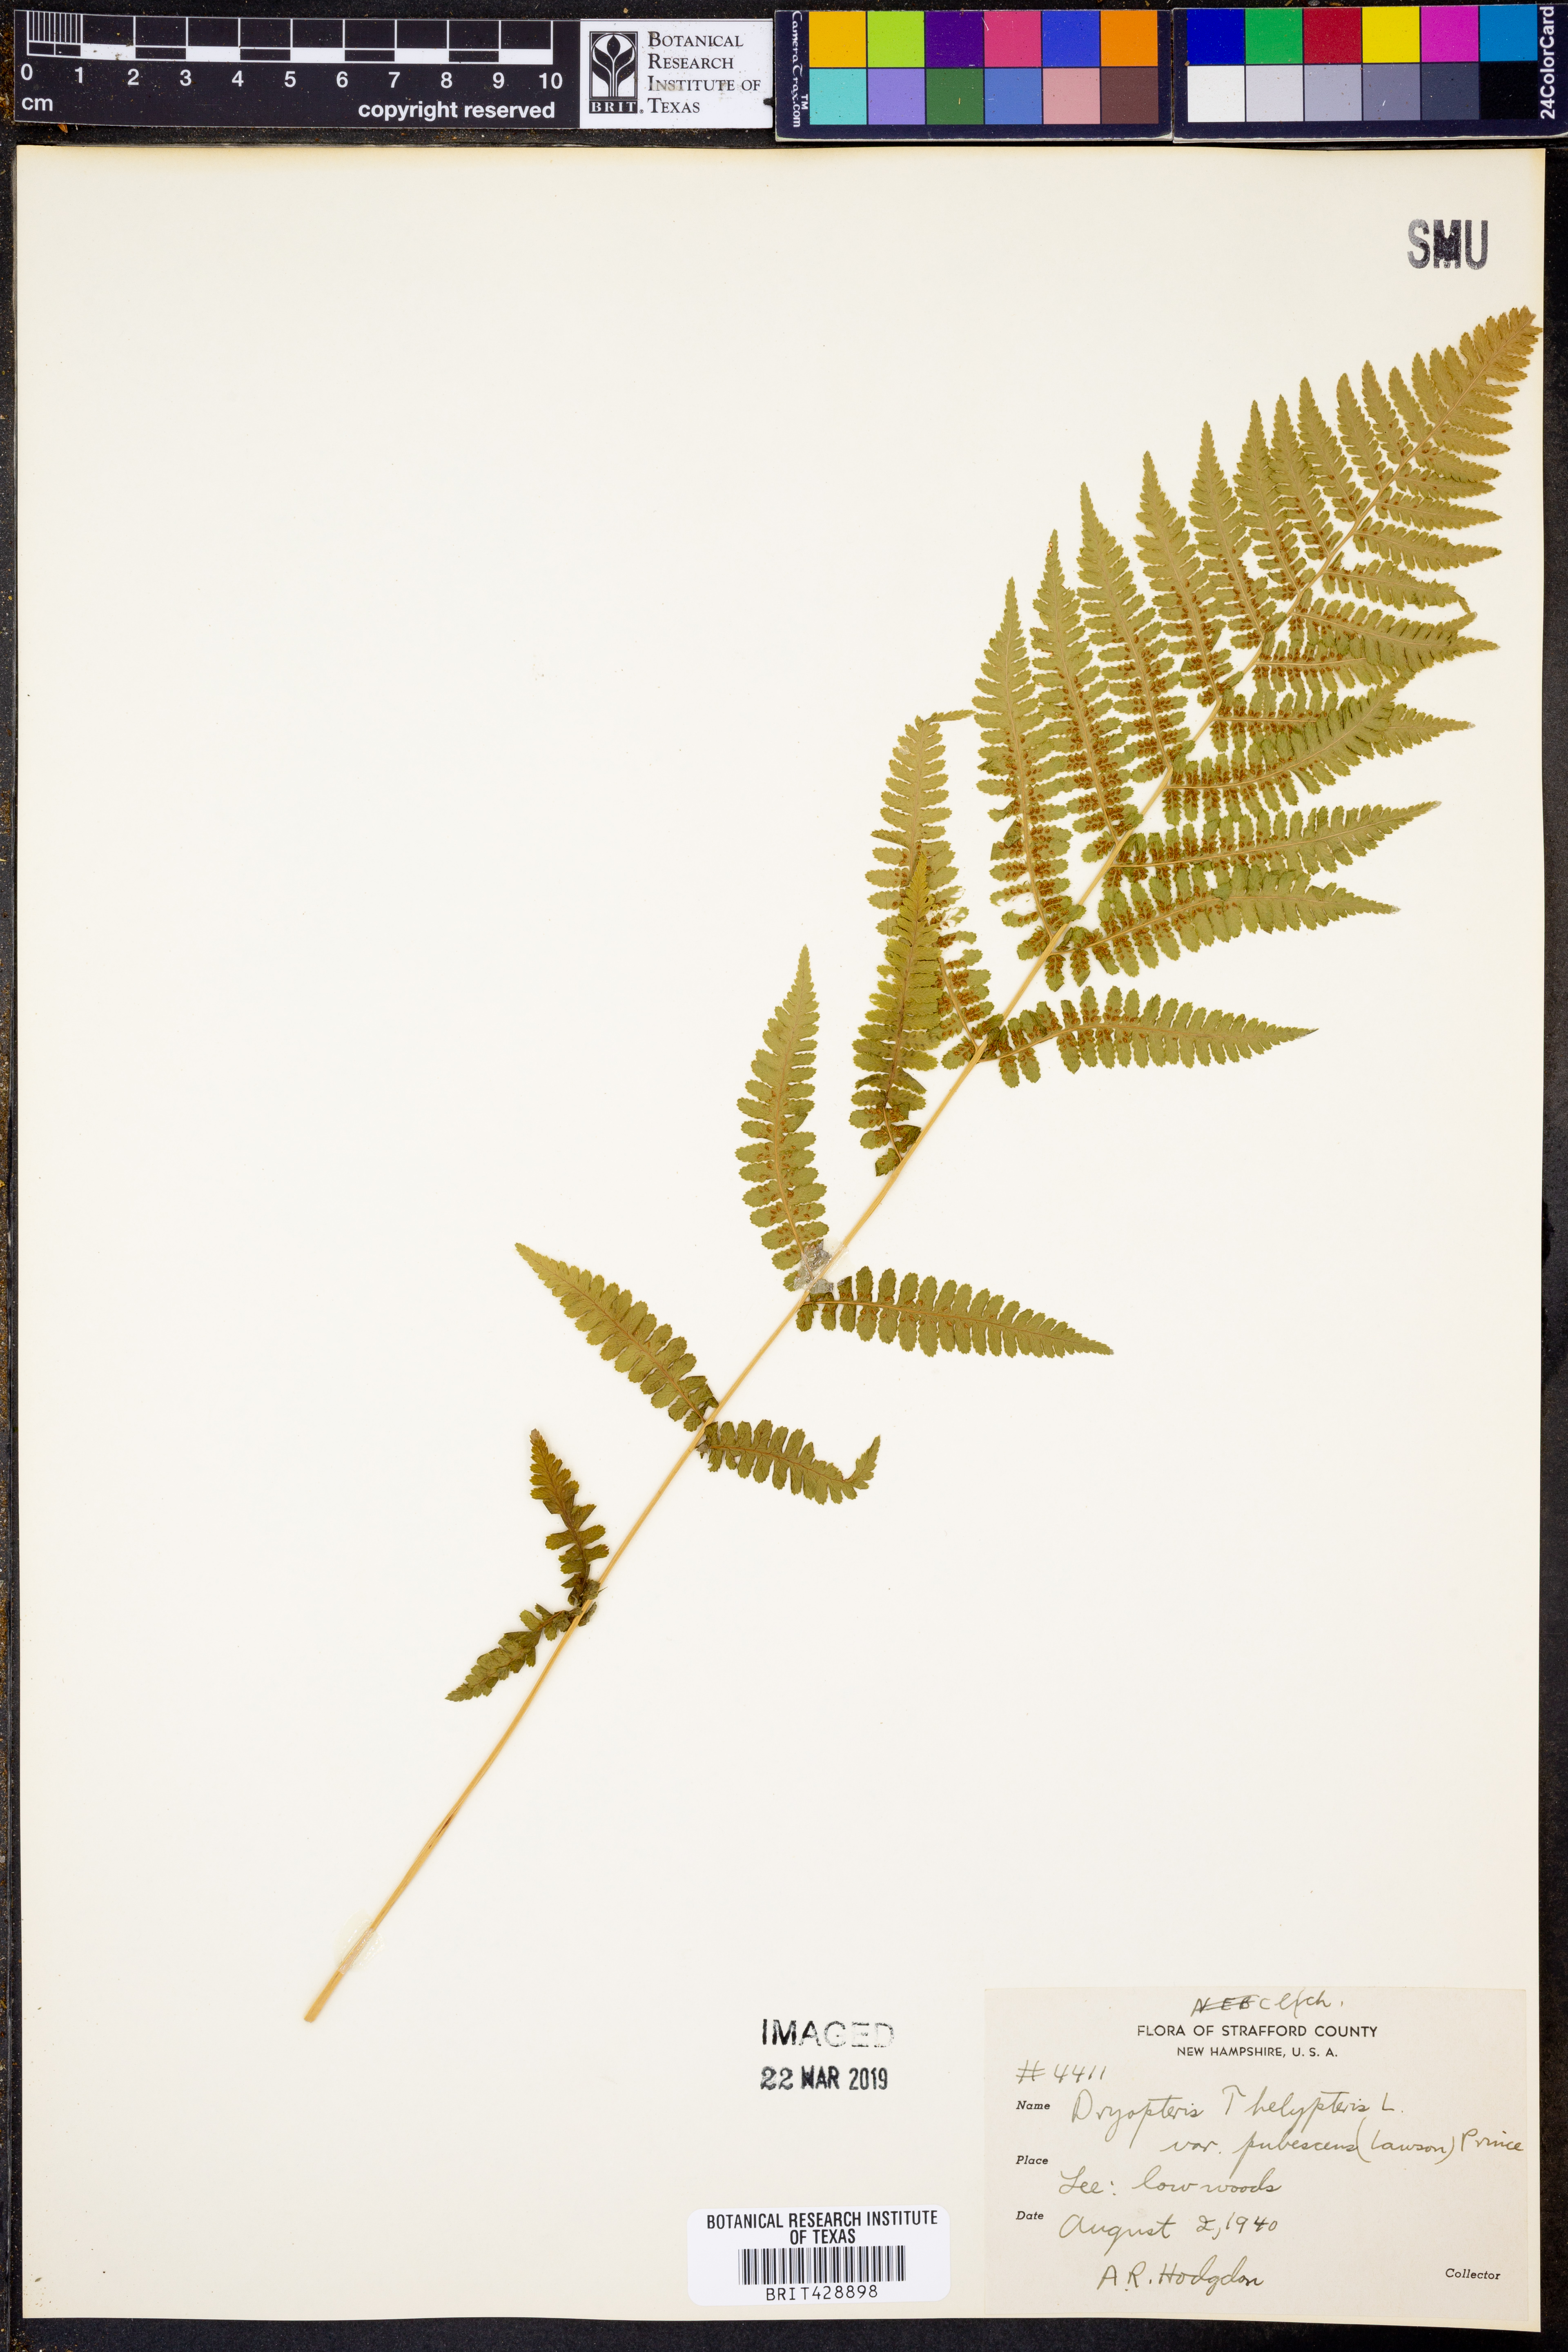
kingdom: Plantae
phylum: Tracheophyta
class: Polypodiopsida
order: Polypodiales
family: Thelypteridaceae
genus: Thelypteris
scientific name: Thelypteris palustris
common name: Marsh fern
